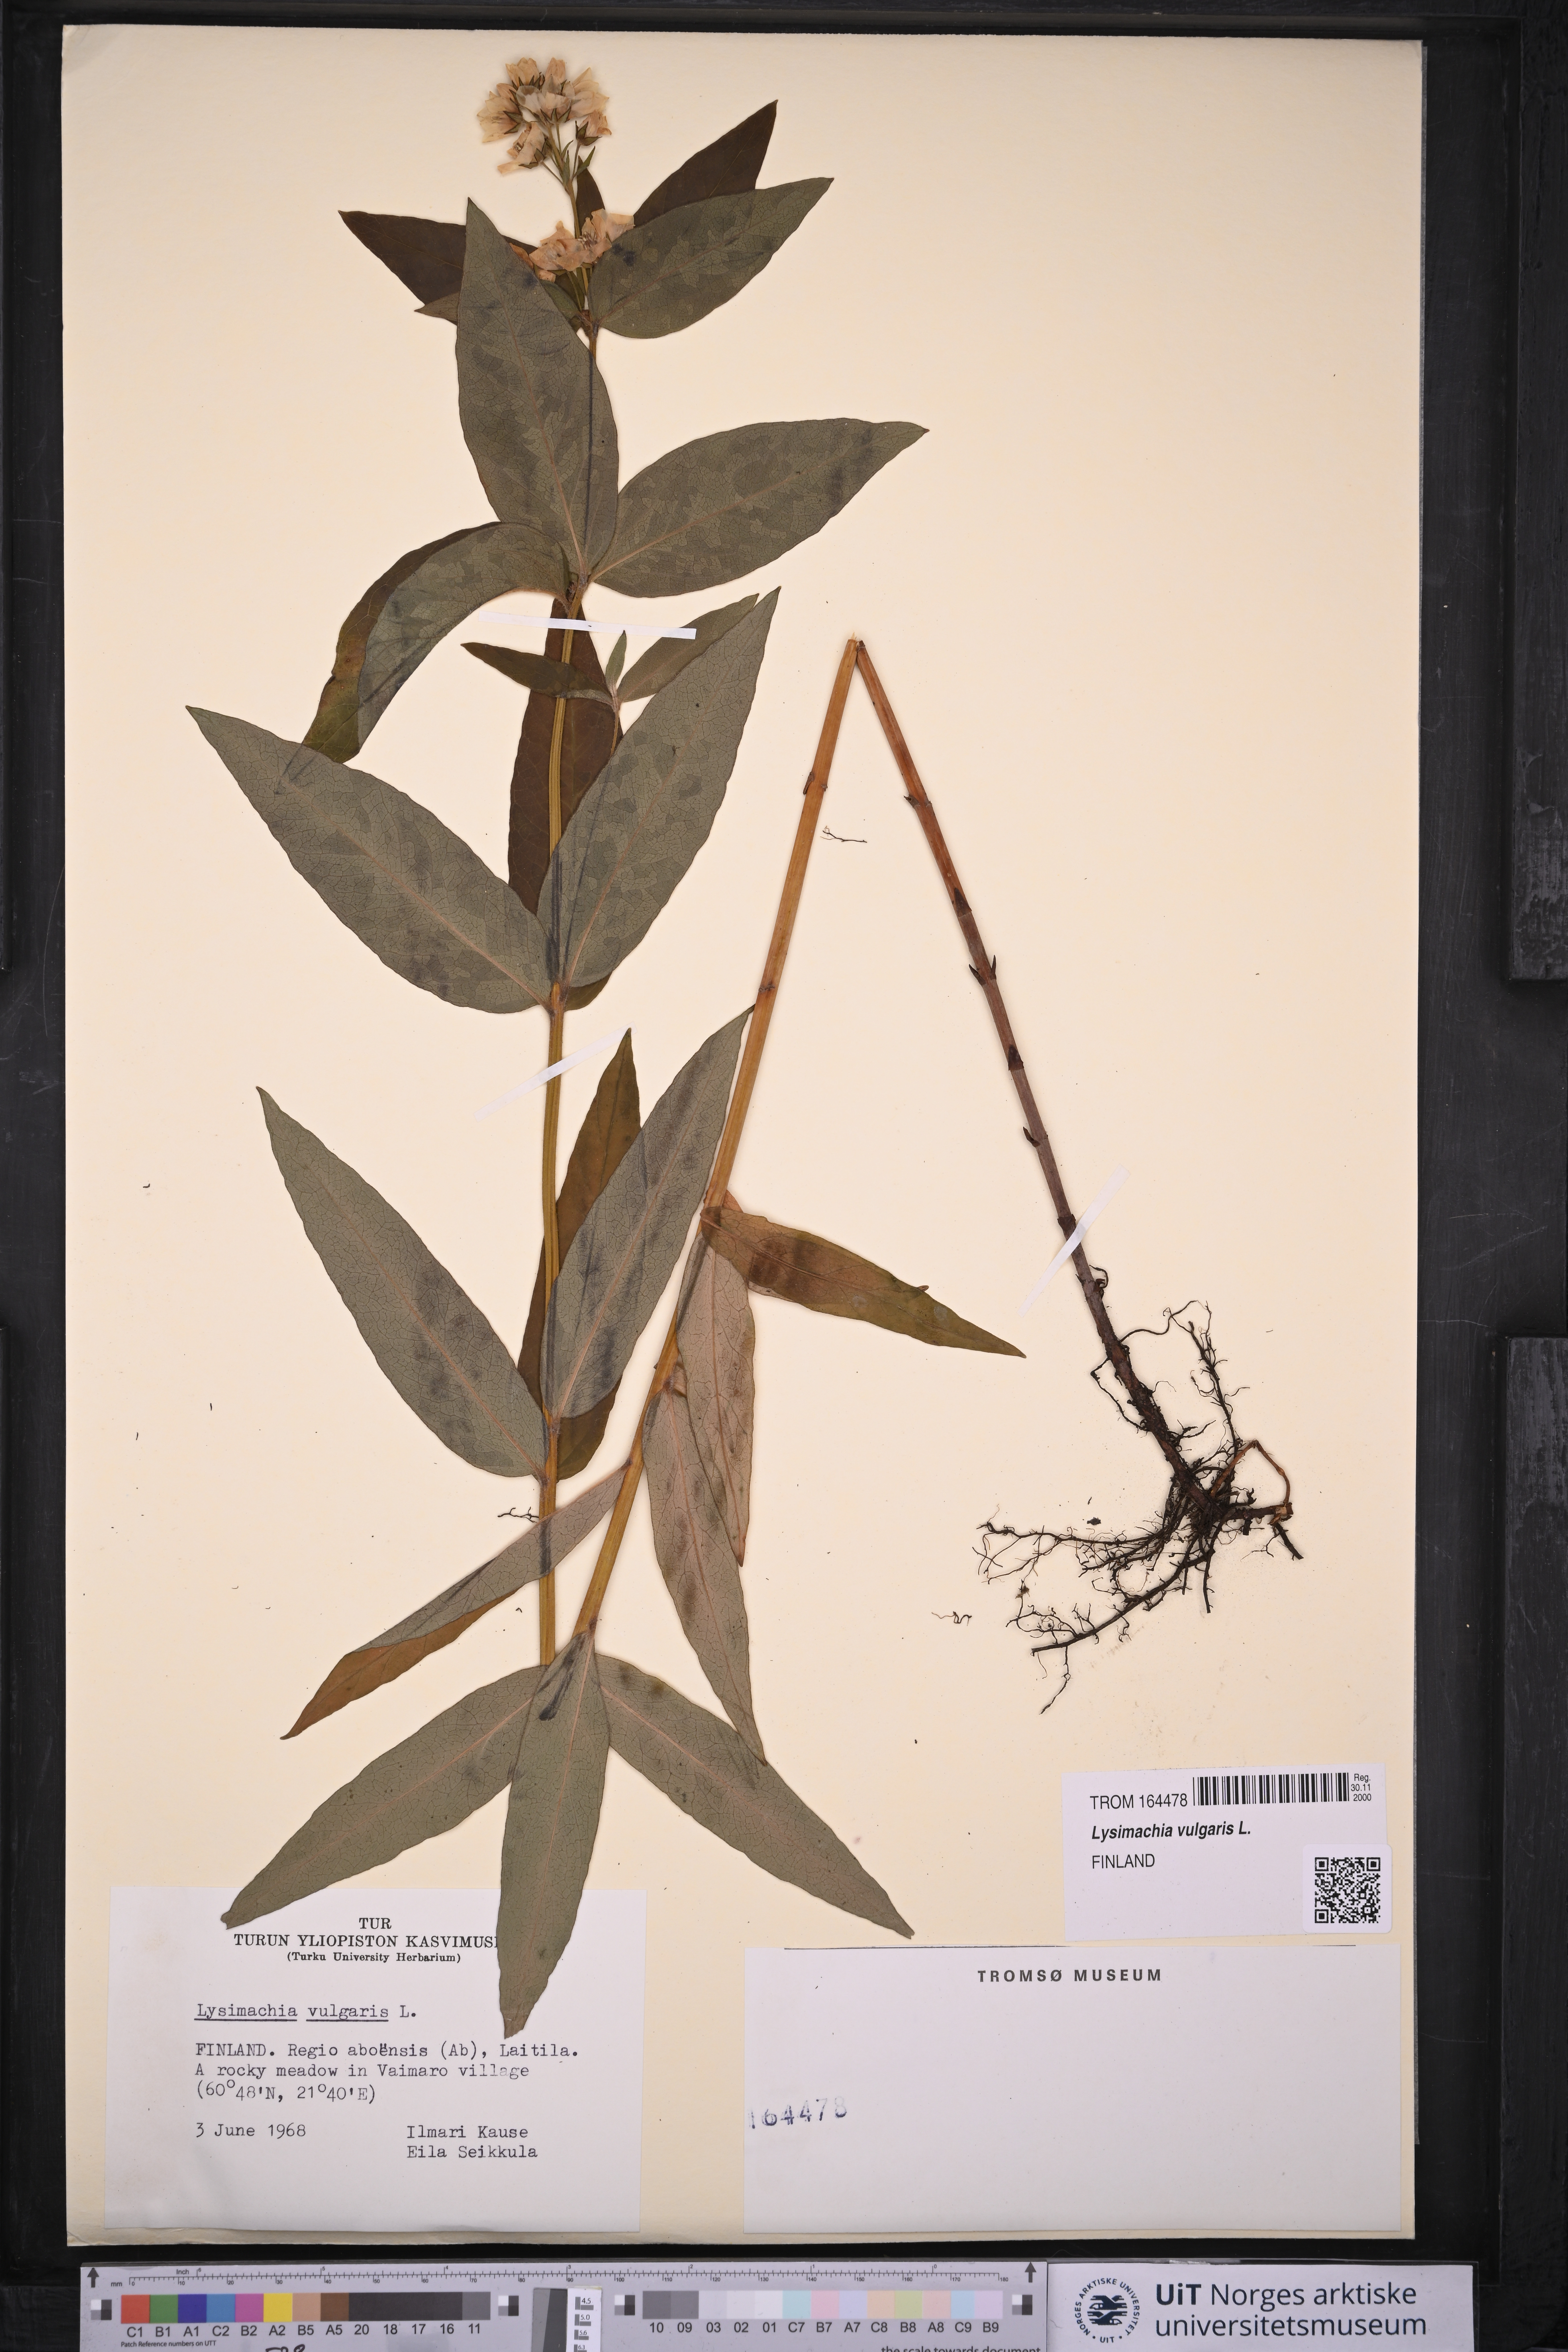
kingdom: Plantae
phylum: Tracheophyta
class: Magnoliopsida
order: Ericales
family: Primulaceae
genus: Lysimachia
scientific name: Lysimachia vulgaris
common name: Yellow loosestrife
